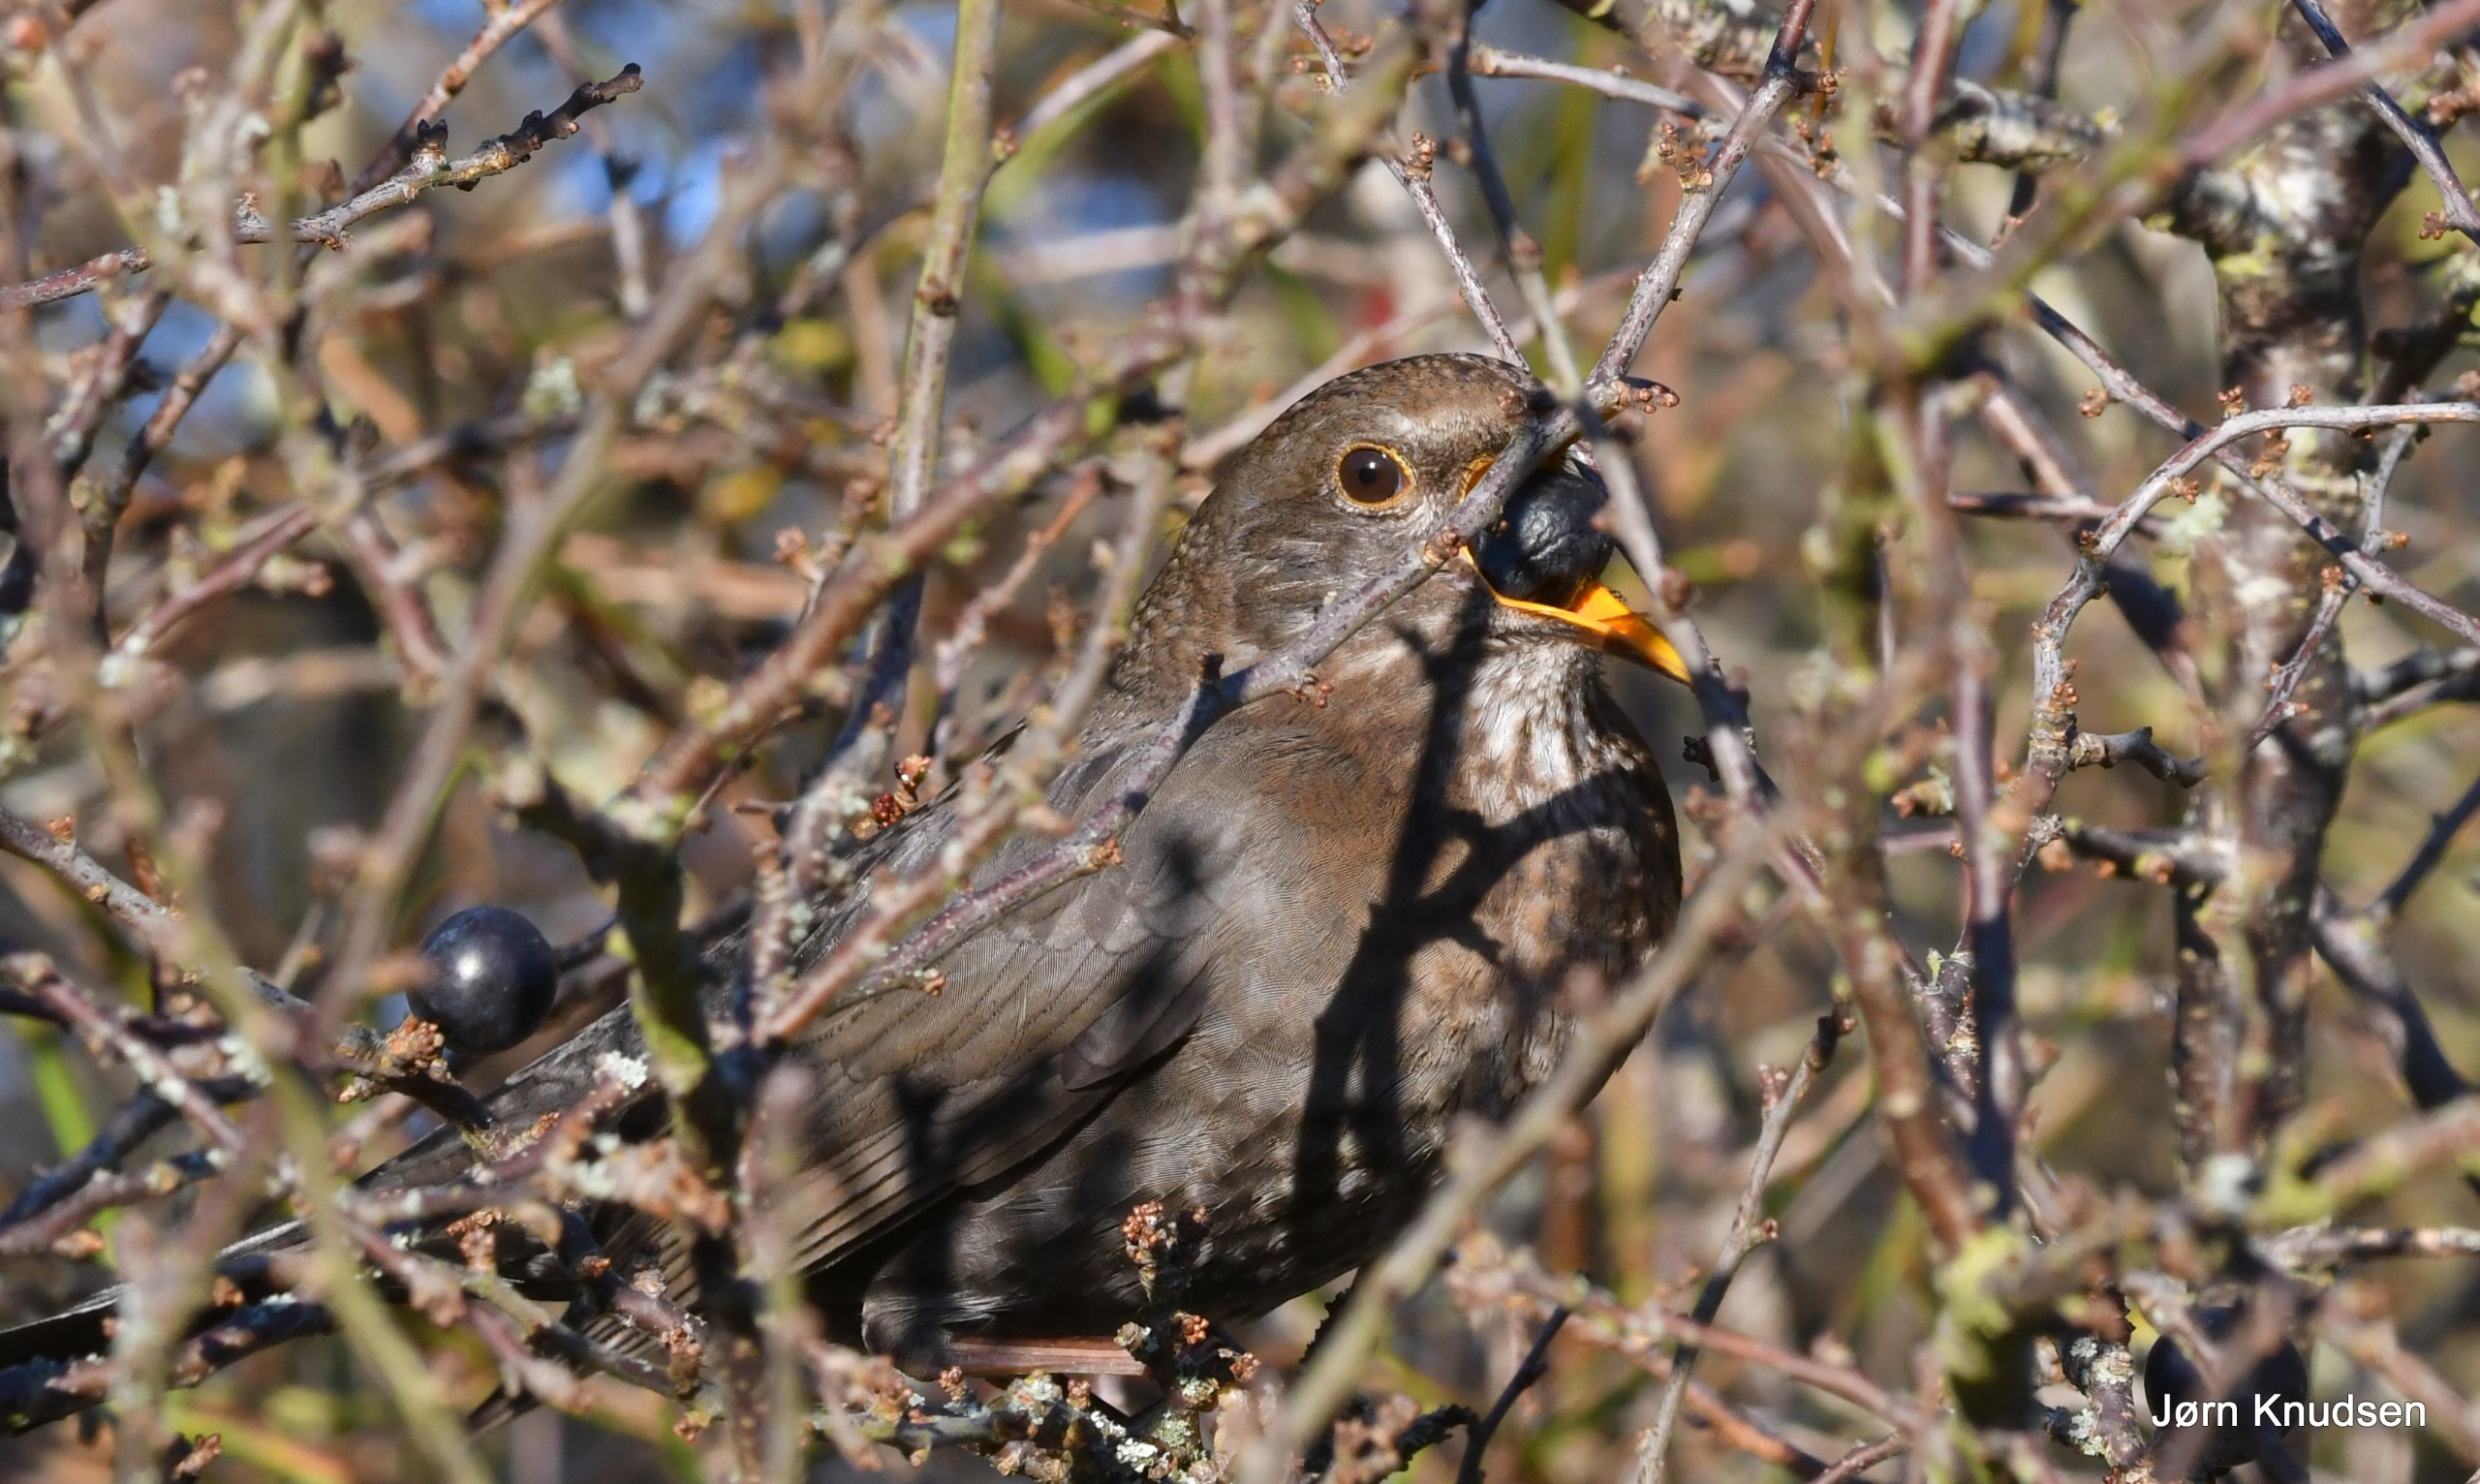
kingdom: Animalia
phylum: Chordata
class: Aves
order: Passeriformes
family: Turdidae
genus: Turdus
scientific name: Turdus merula
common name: Solsort
